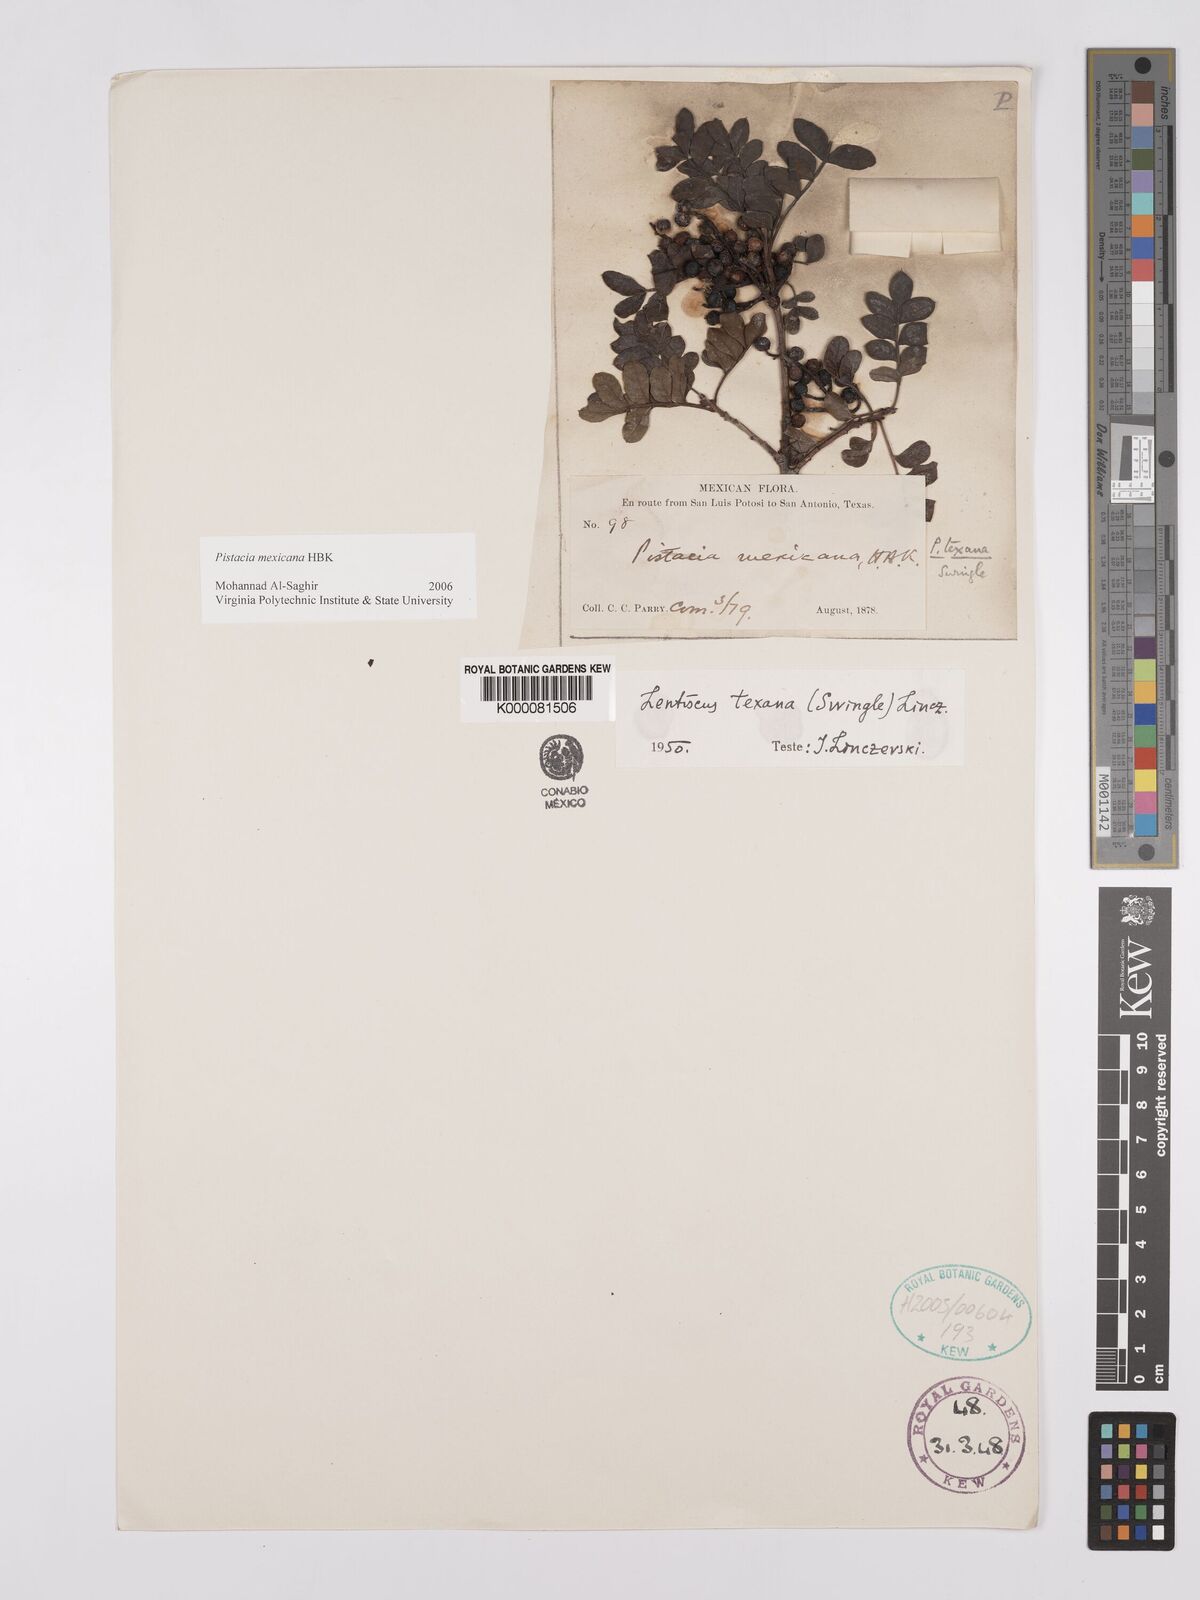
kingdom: Plantae
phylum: Tracheophyta
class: Magnoliopsida
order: Sapindales
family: Anacardiaceae
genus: Pistacia
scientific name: Pistacia
